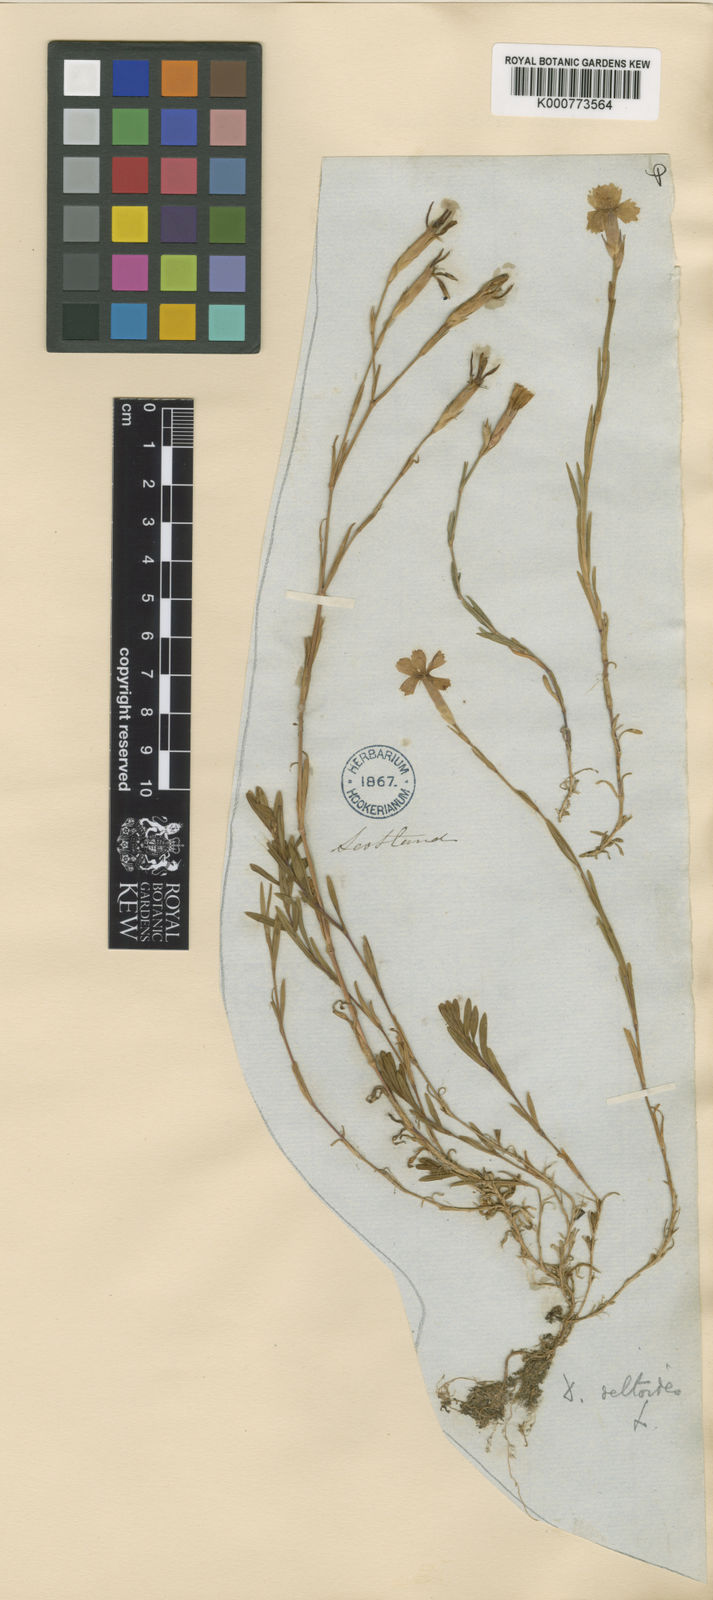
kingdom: Plantae
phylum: Tracheophyta
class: Magnoliopsida
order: Caryophyllales
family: Caryophyllaceae
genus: Dianthus
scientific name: Dianthus deltoides
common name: Maiden pink
